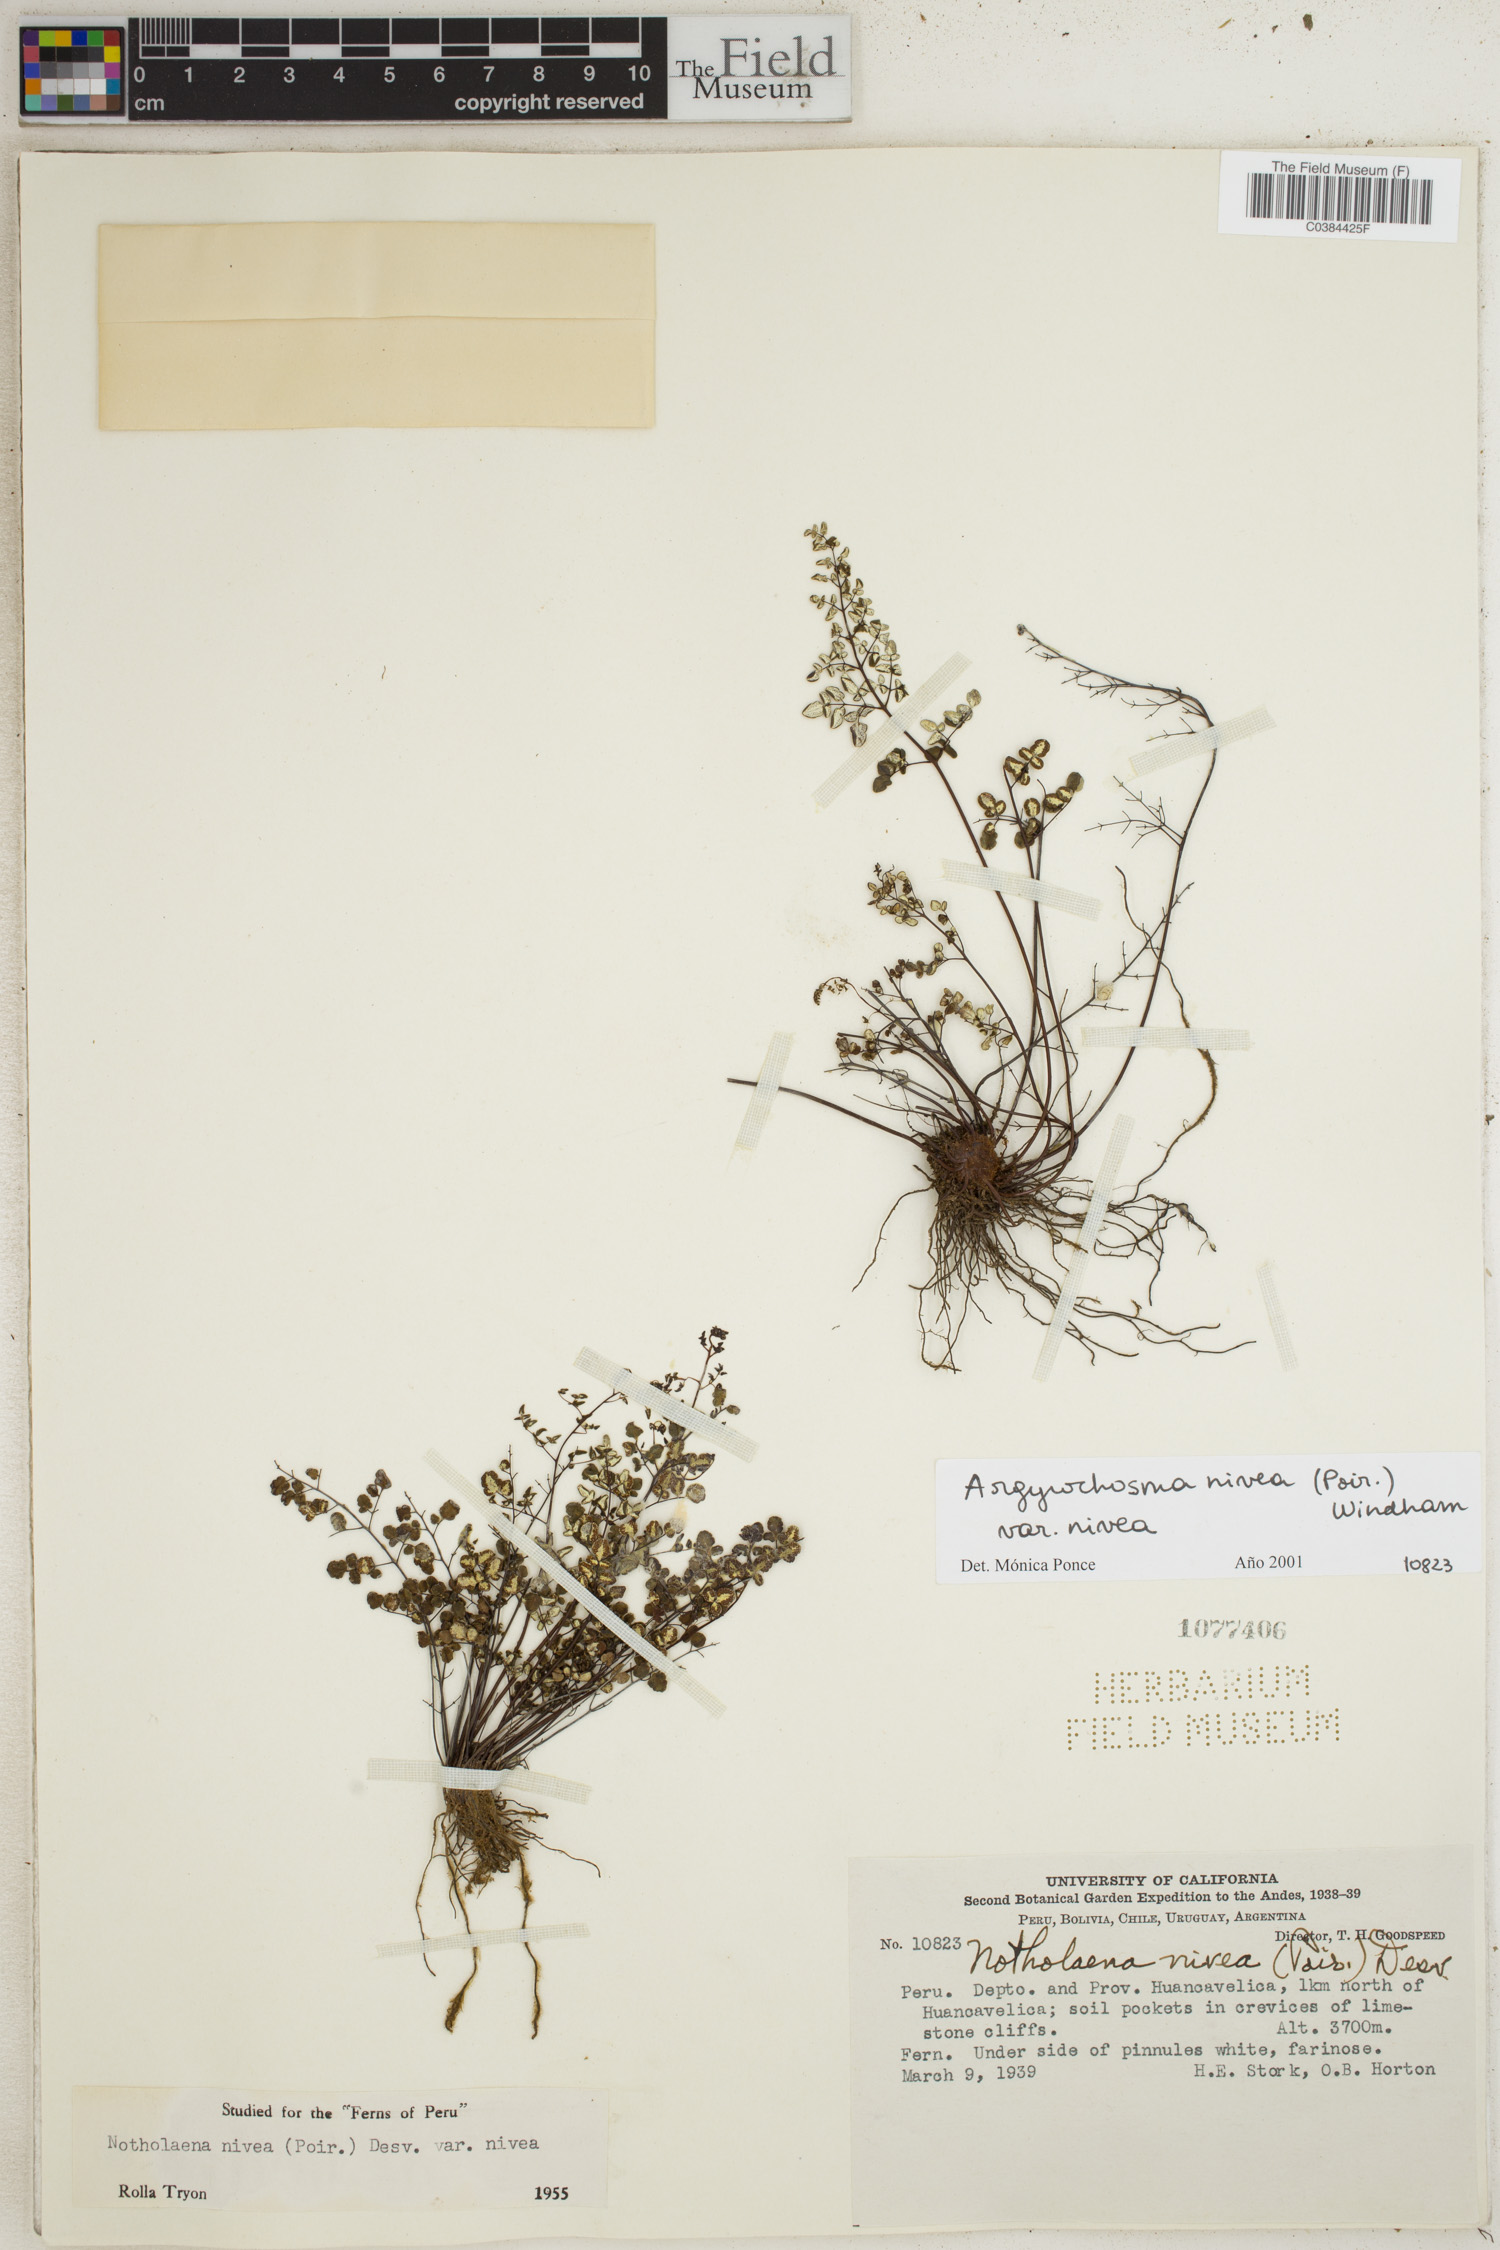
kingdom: Plantae
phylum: Tracheophyta
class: Polypodiopsida
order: Polypodiales
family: Pteridaceae
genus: Argyrochosma
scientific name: Argyrochosma nivea
